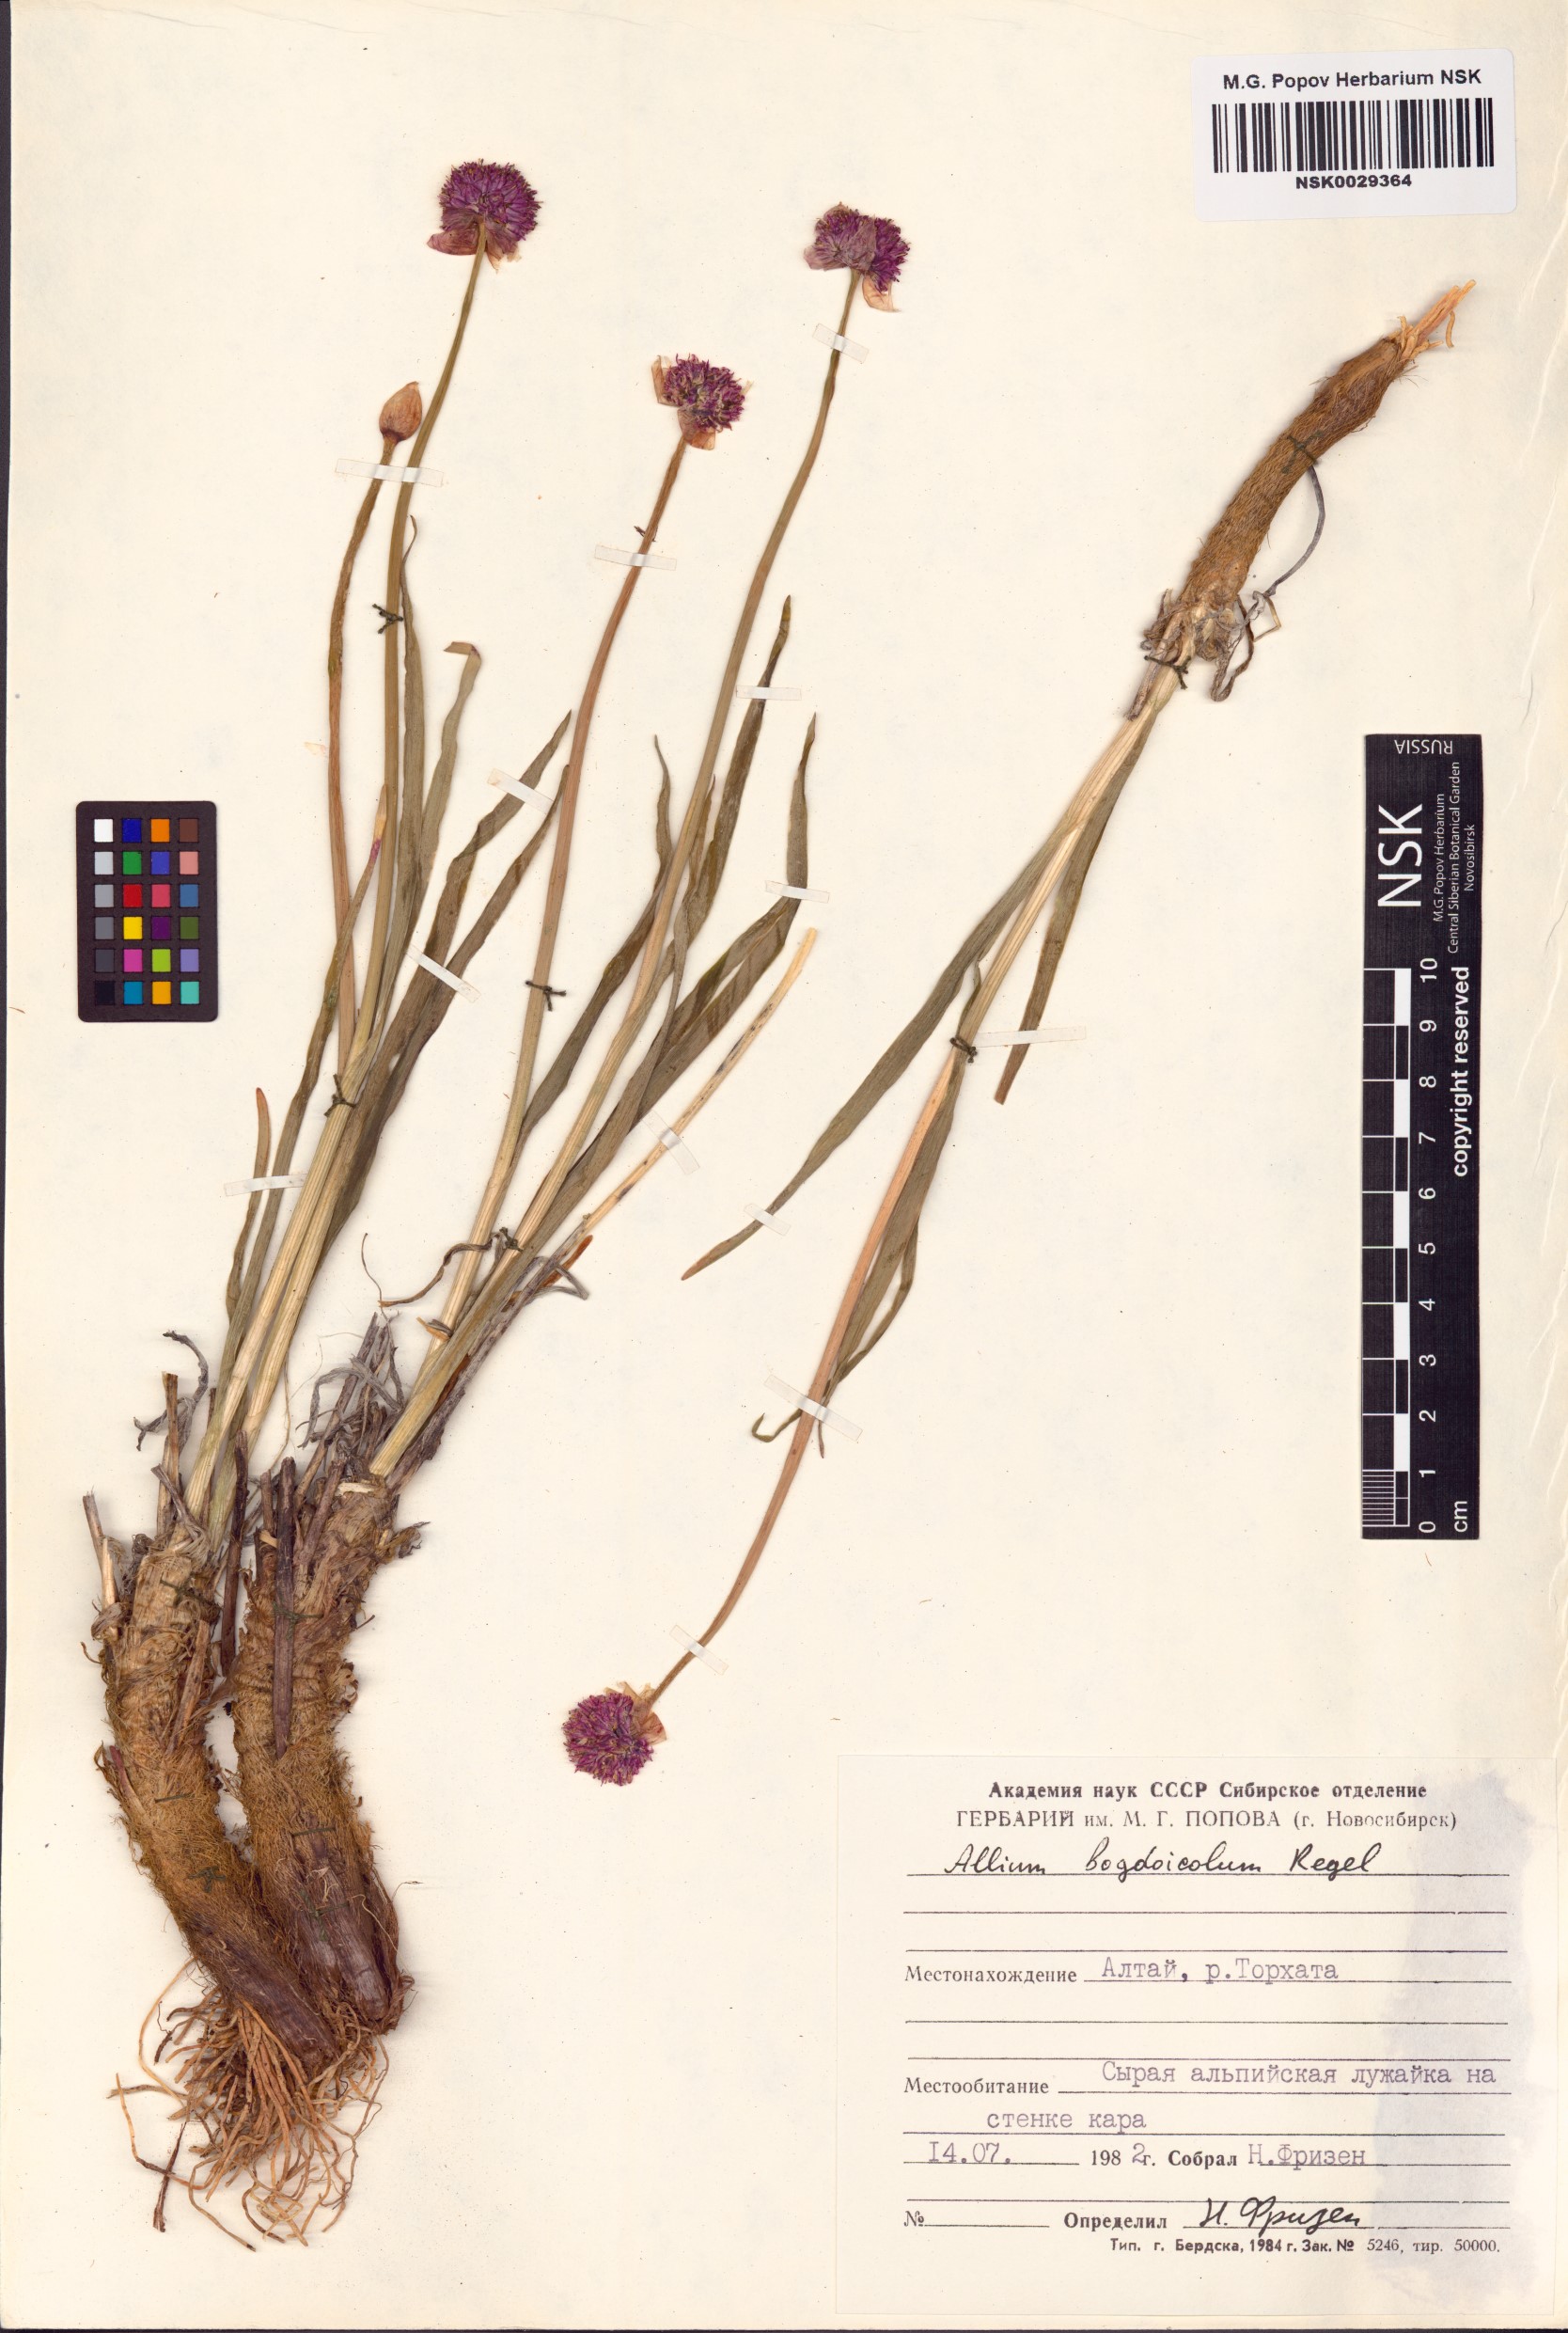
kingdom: Plantae
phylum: Tracheophyta
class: Liliopsida
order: Asparagales
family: Amaryllidaceae
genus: Allium
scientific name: Allium schrenkii
